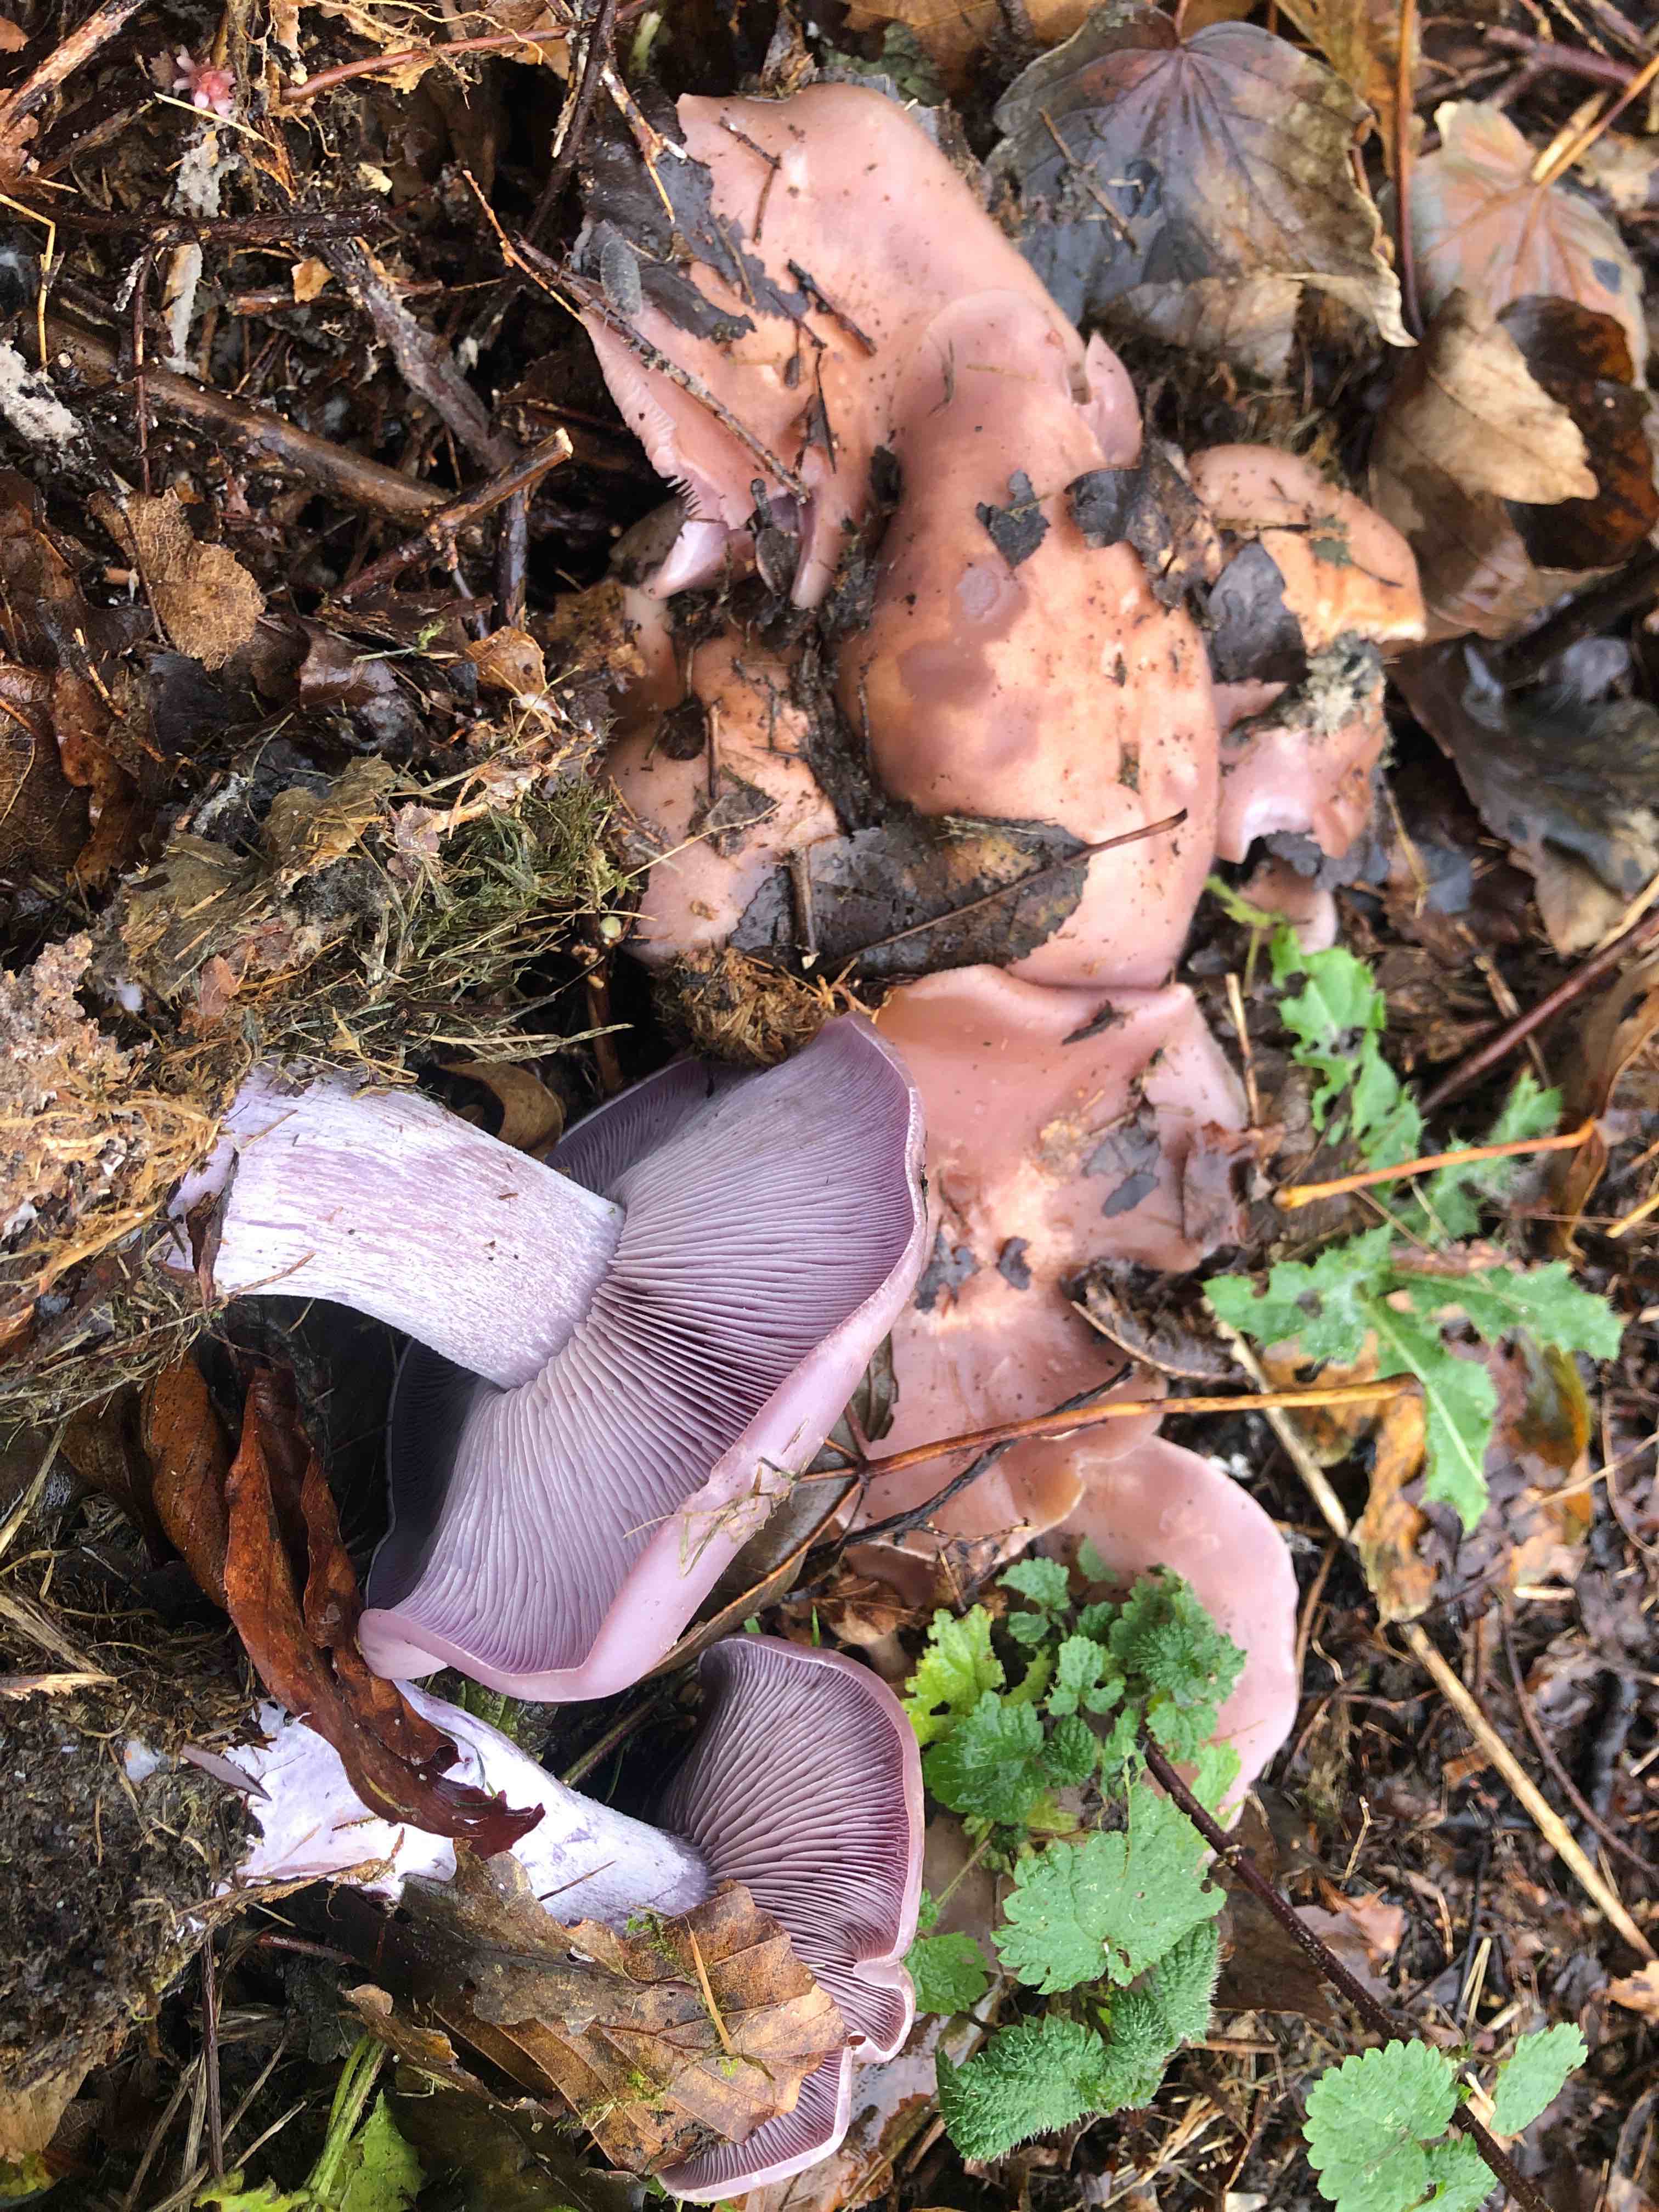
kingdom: Fungi
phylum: Basidiomycota
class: Agaricomycetes
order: Agaricales
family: Tricholomataceae
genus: Lepista
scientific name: Lepista nuda
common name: violet hekseringshat
